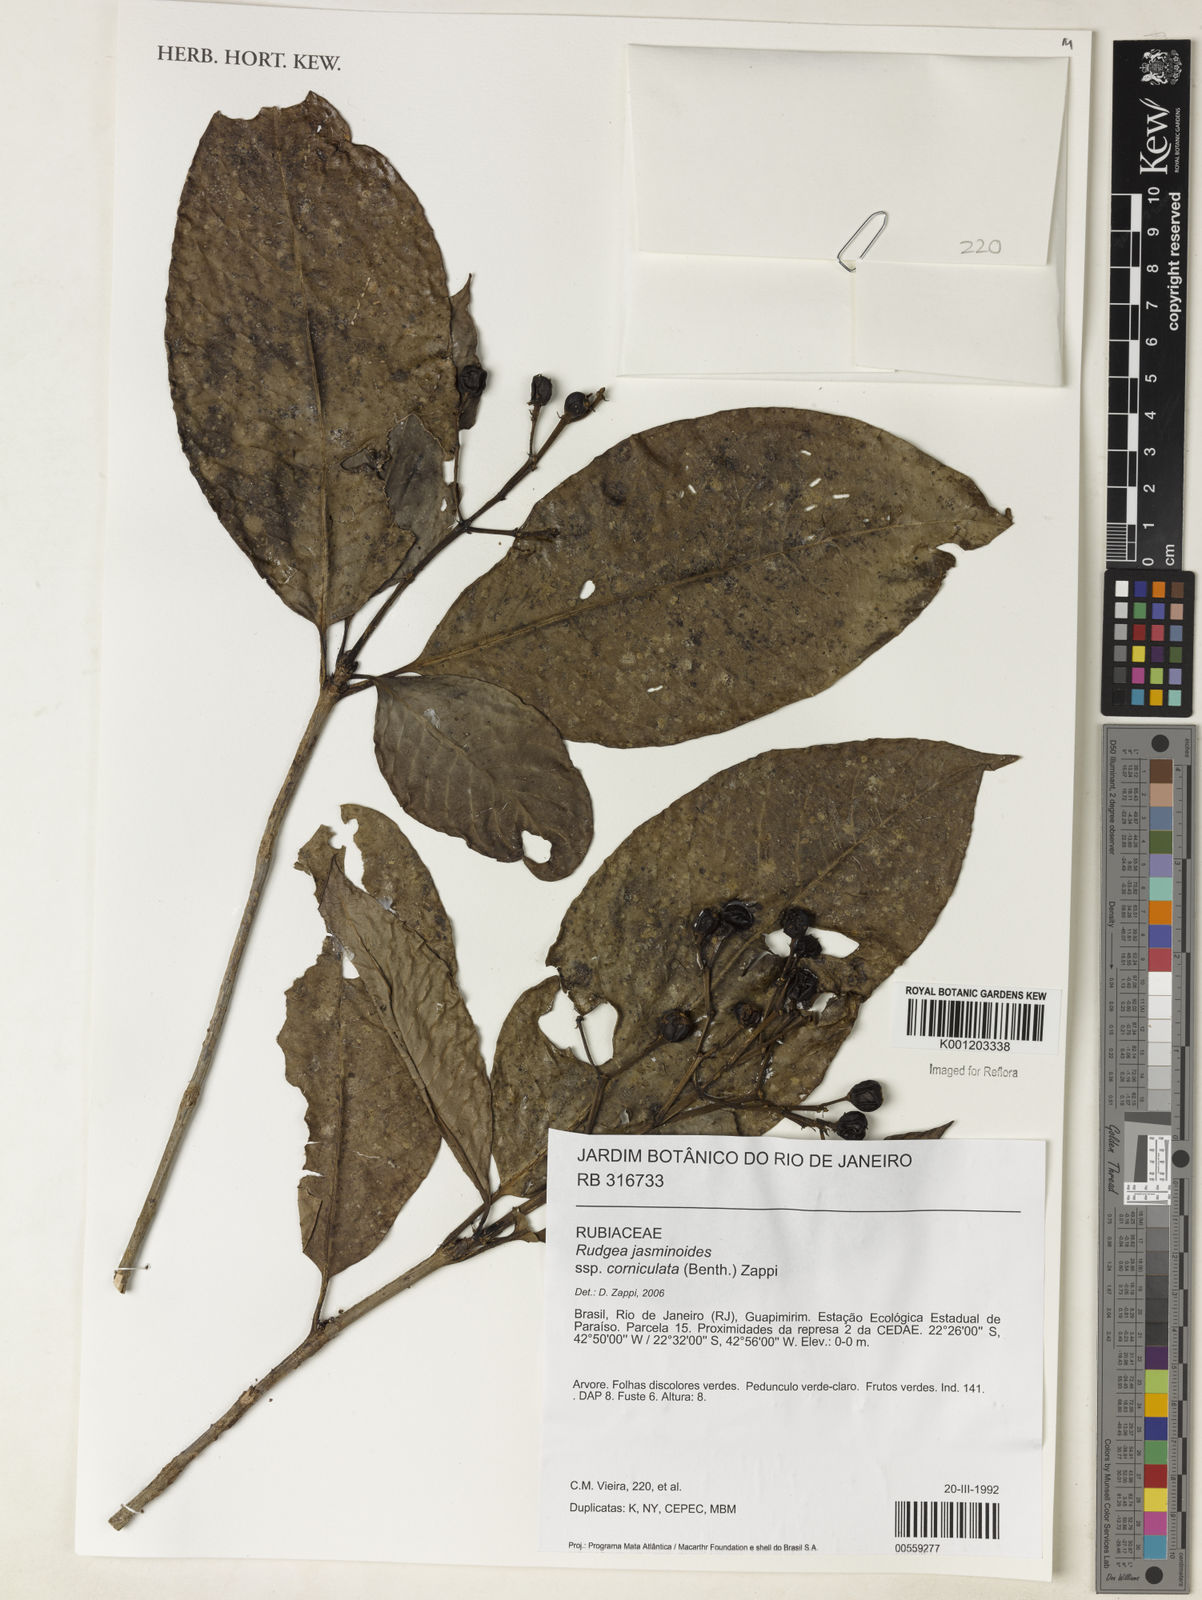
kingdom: Plantae
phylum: Tracheophyta
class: Magnoliopsida
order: Gentianales
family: Rubiaceae
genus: Rudgea
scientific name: Rudgea
